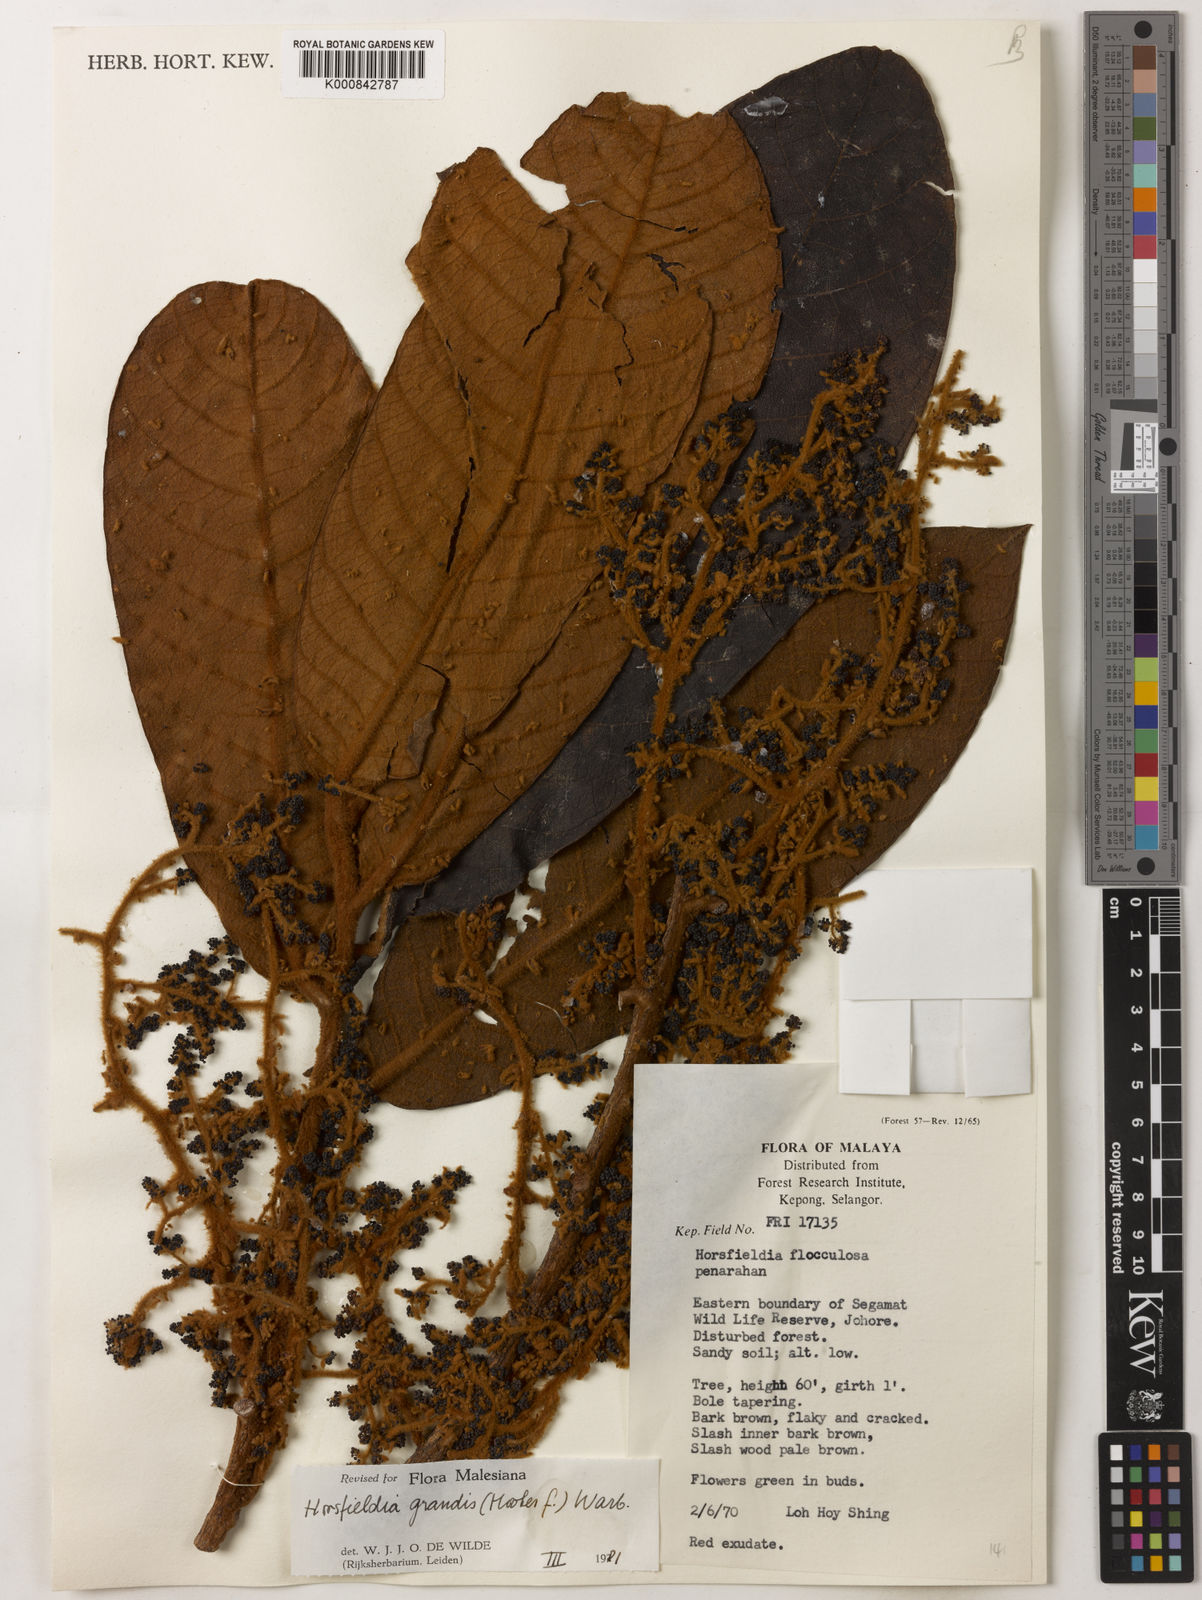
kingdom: Plantae
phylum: Tracheophyta
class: Magnoliopsida
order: Magnoliales
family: Myristicaceae
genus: Horsfieldia
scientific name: Horsfieldia grandis
